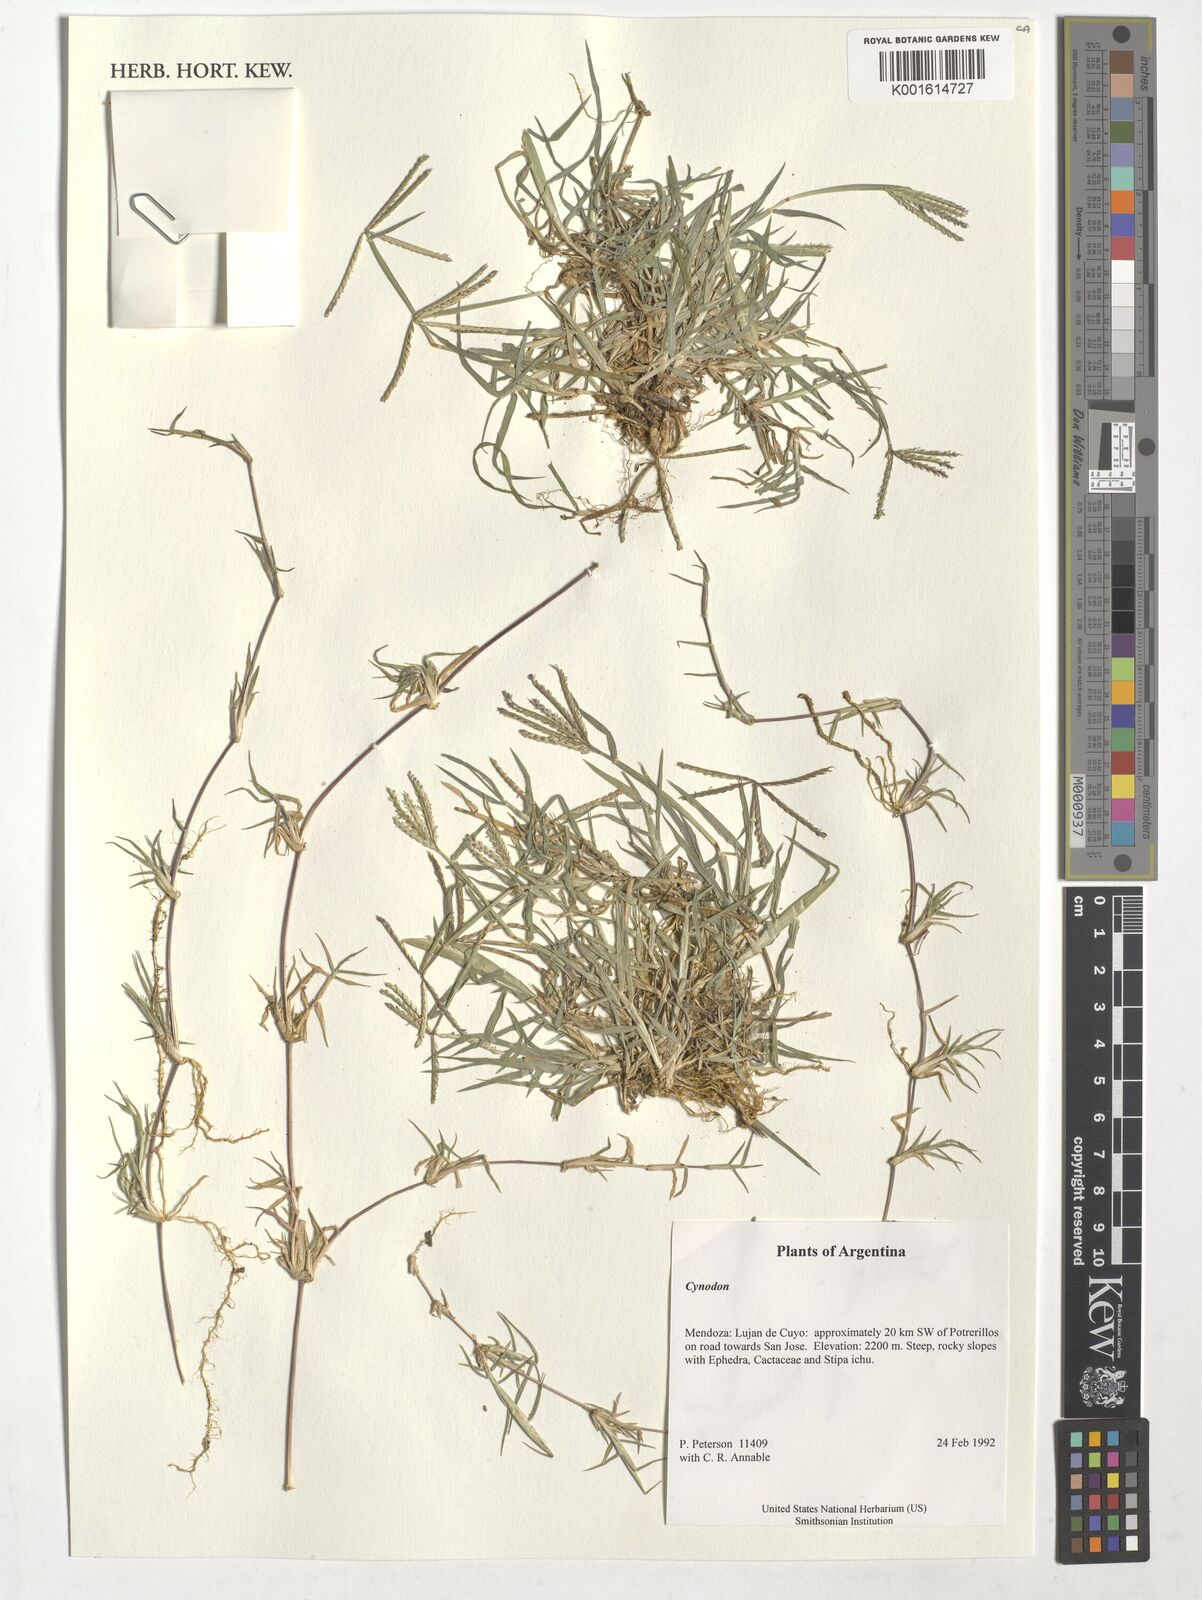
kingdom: Plantae
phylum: Tracheophyta
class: Liliopsida
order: Poales
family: Poaceae
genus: Cynodon
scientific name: Cynodon
